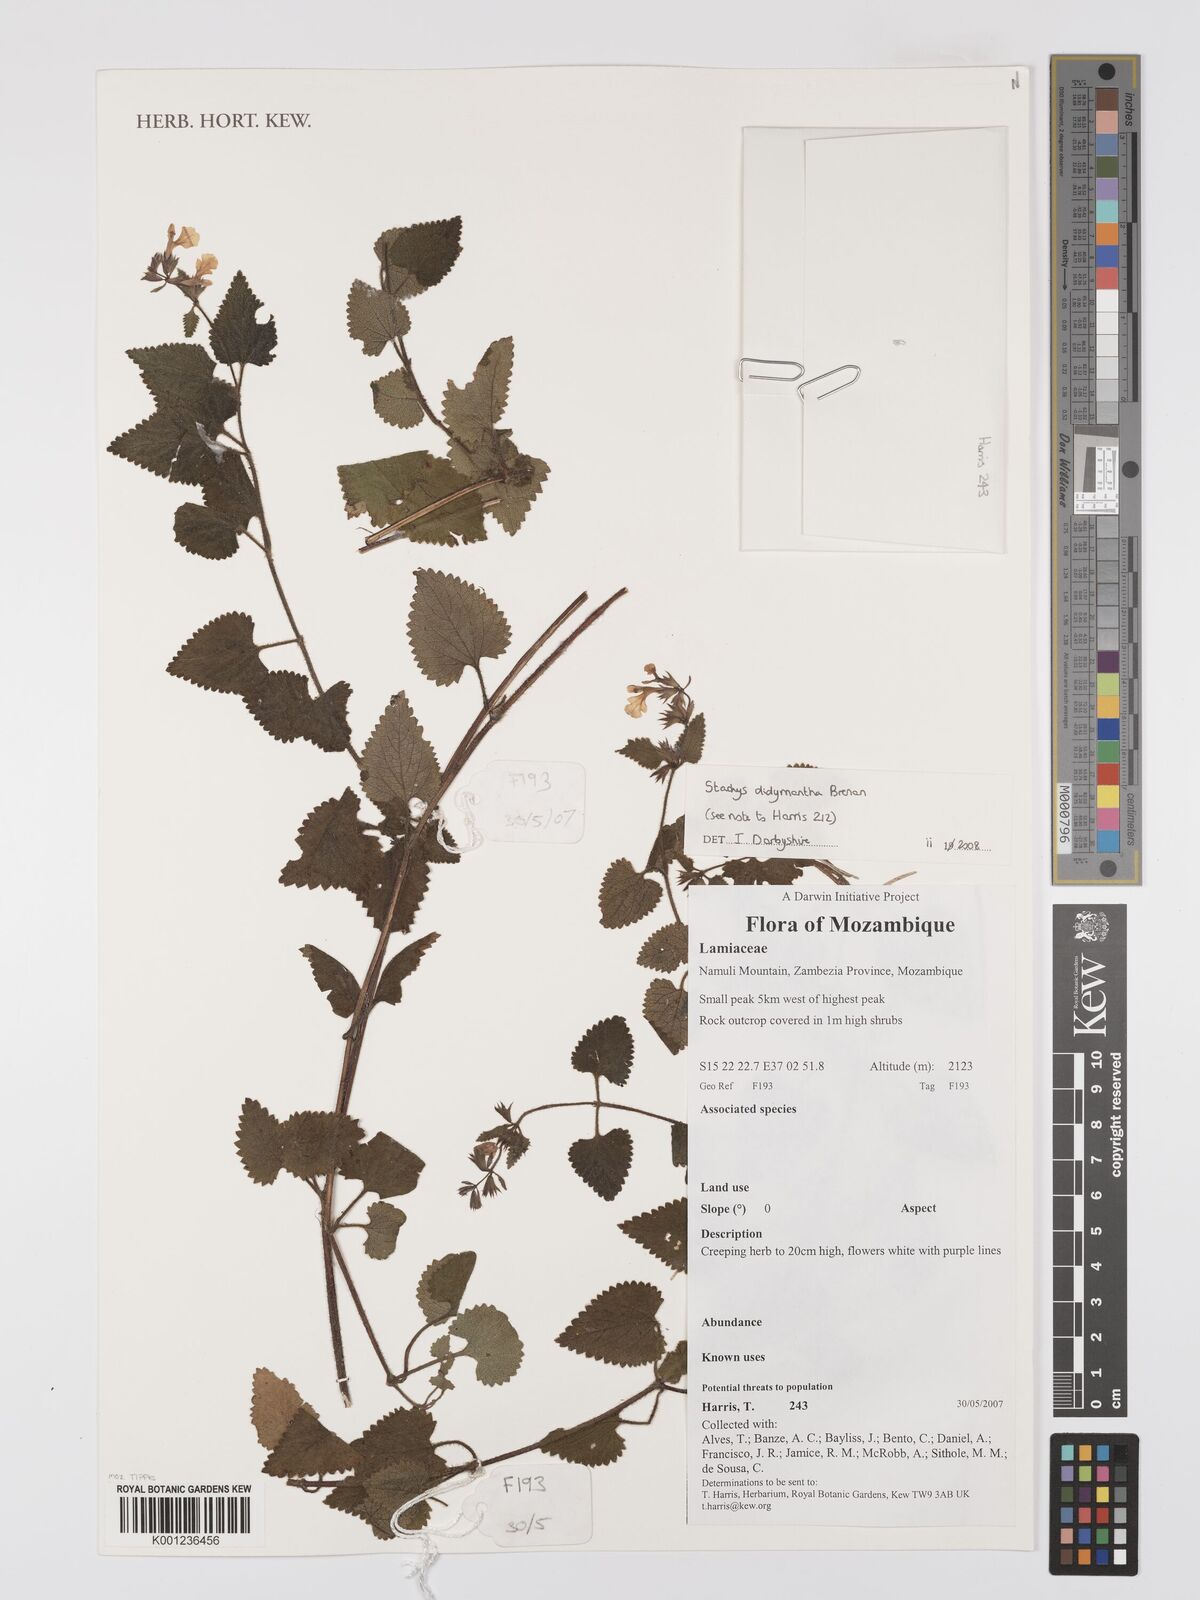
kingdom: Plantae
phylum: Tracheophyta
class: Magnoliopsida
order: Lamiales
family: Lamiaceae
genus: Stachys
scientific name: Stachys didymantha
